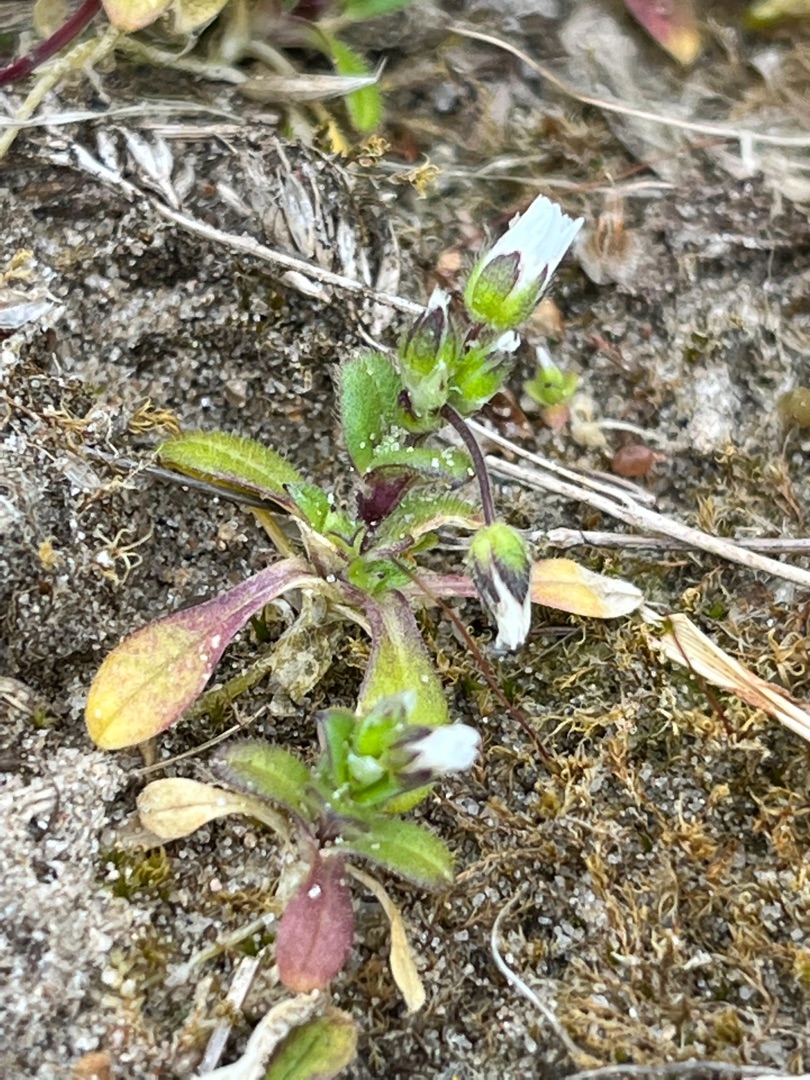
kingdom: Plantae
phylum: Tracheophyta
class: Magnoliopsida
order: Caryophyllales
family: Caryophyllaceae
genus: Cerastium
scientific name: Cerastium semidecandrum
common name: Femhannet hønsetarm
